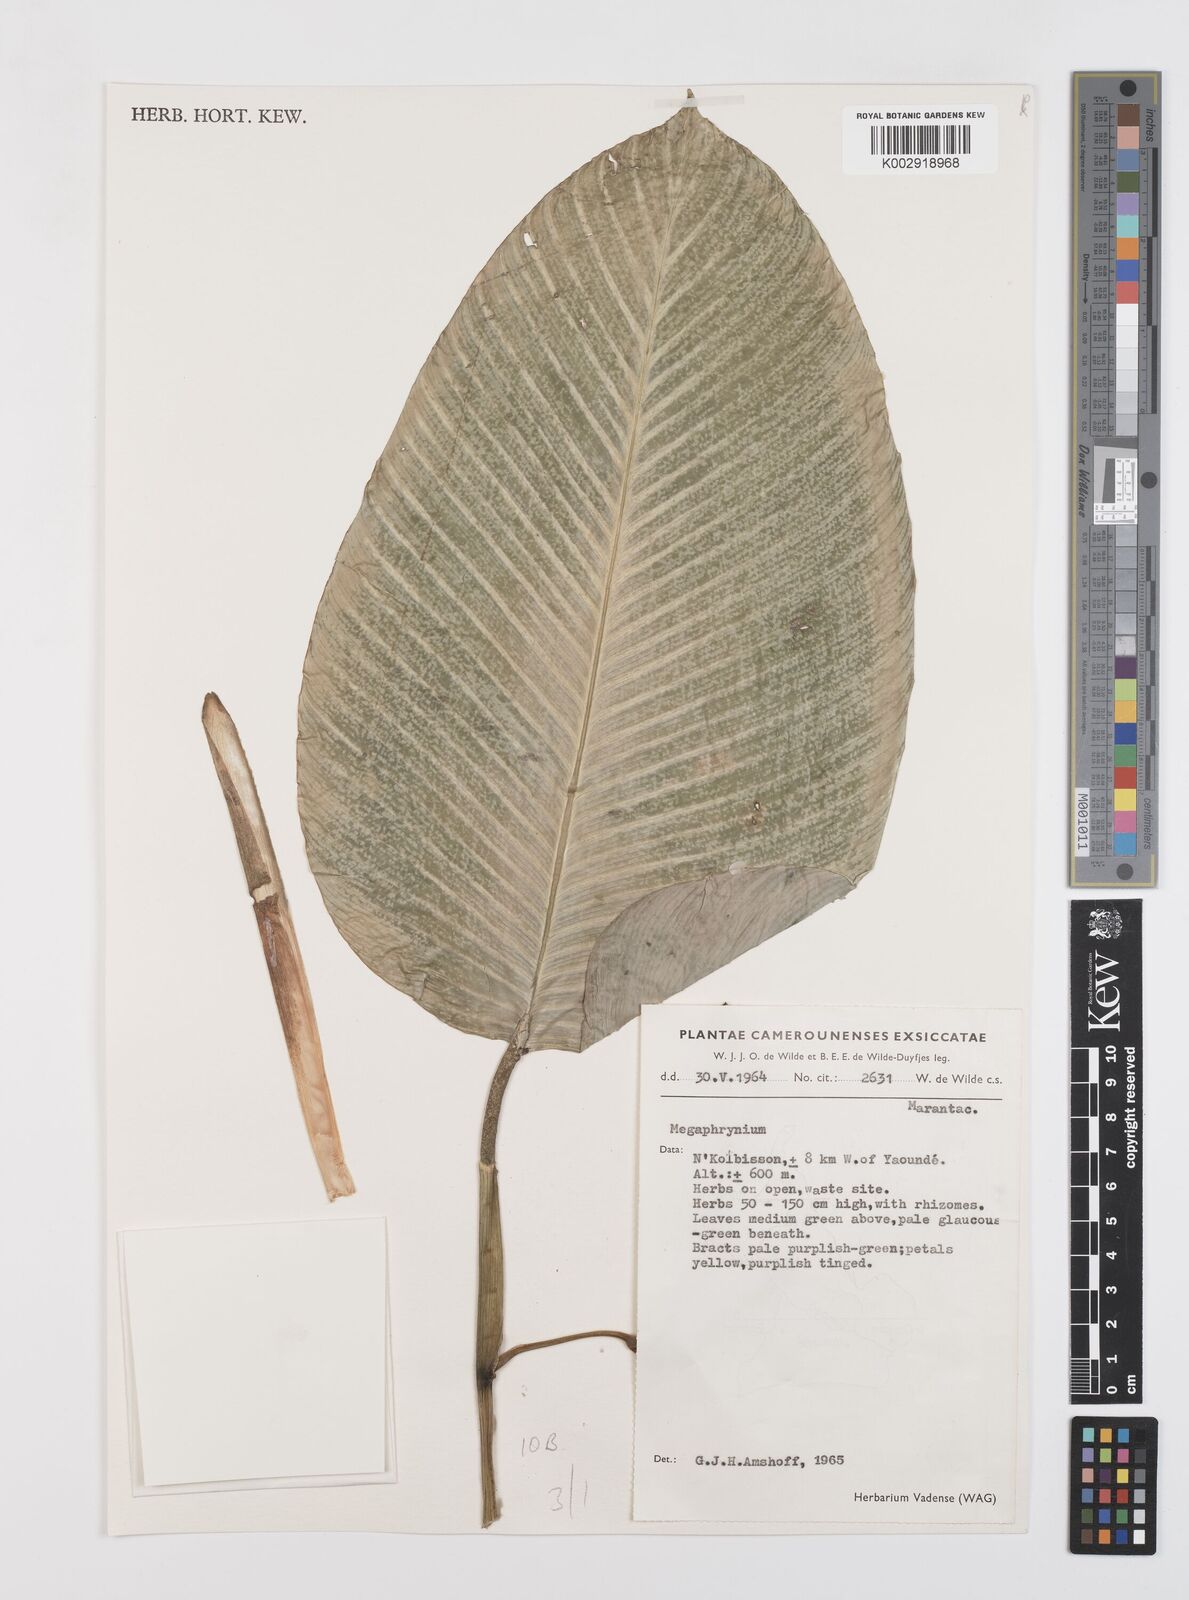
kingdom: Plantae
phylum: Tracheophyta
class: Liliopsida
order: Zingiberales
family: Marantaceae
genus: Megaphrynium
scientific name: Megaphrynium
